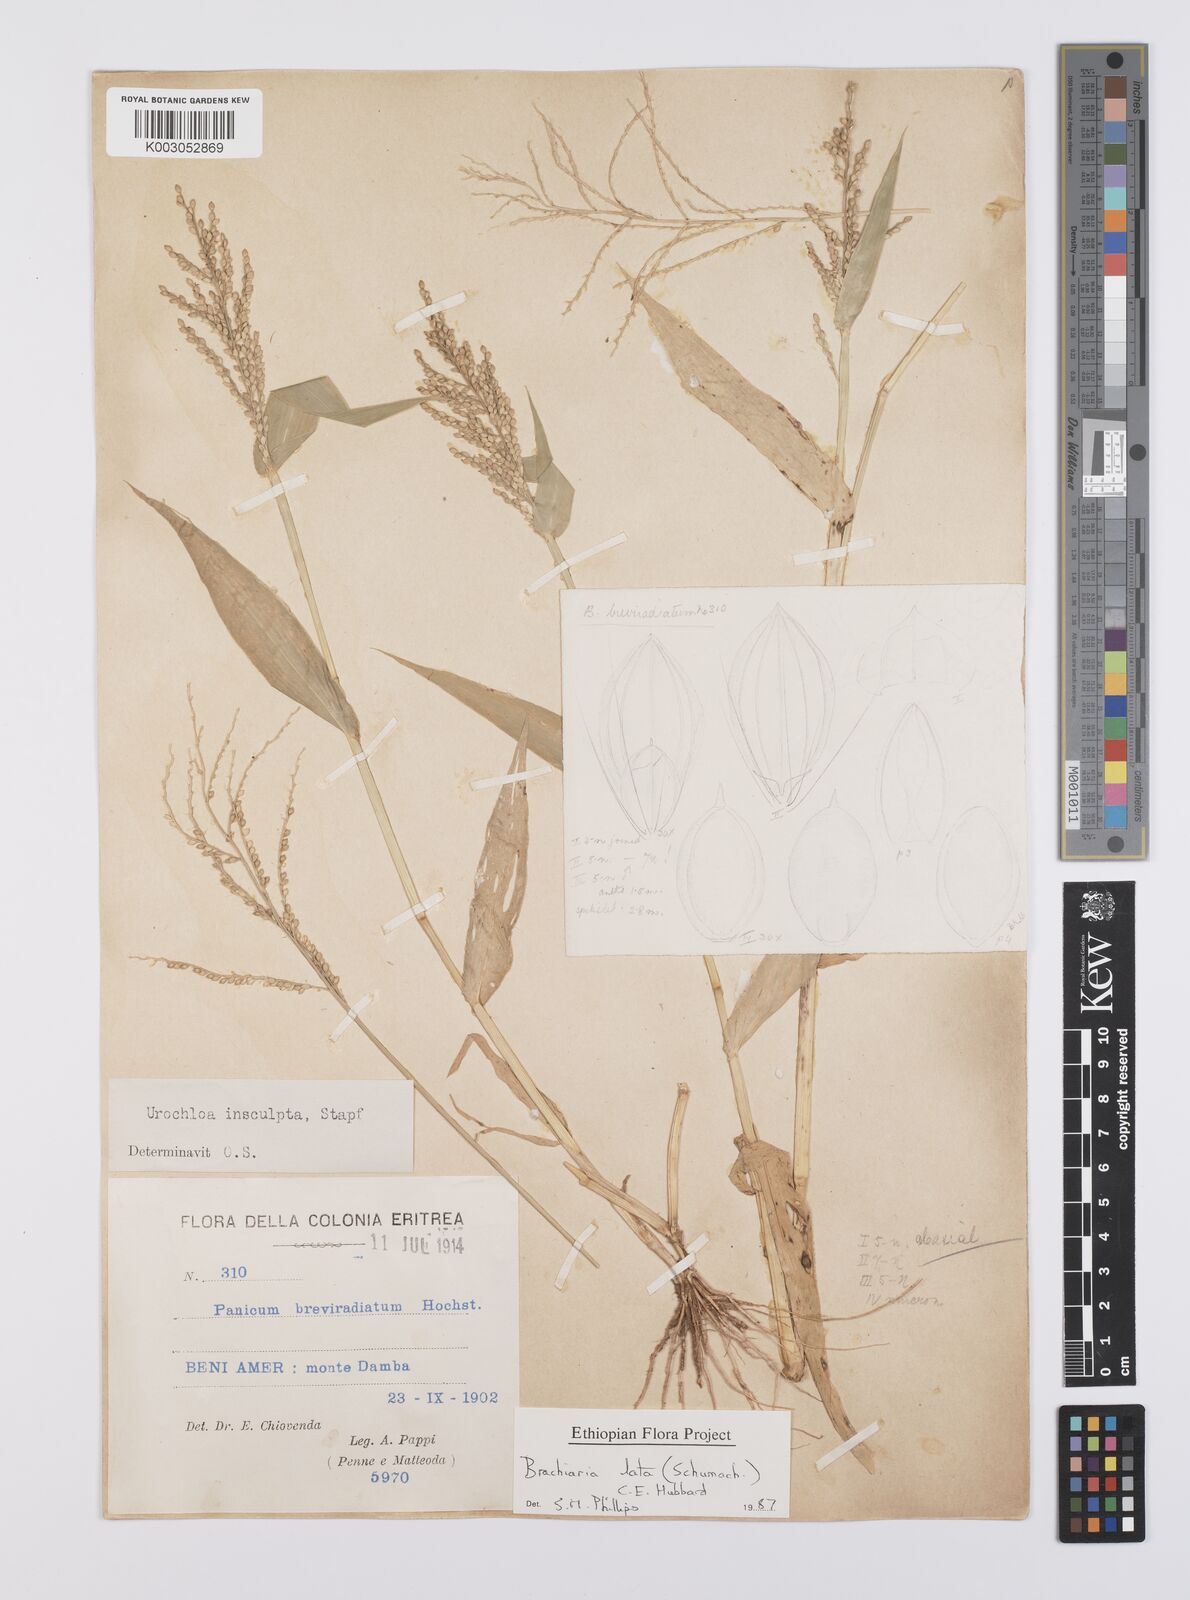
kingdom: Plantae
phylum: Tracheophyta
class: Liliopsida
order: Poales
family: Poaceae
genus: Urochloa
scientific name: Urochloa lata
